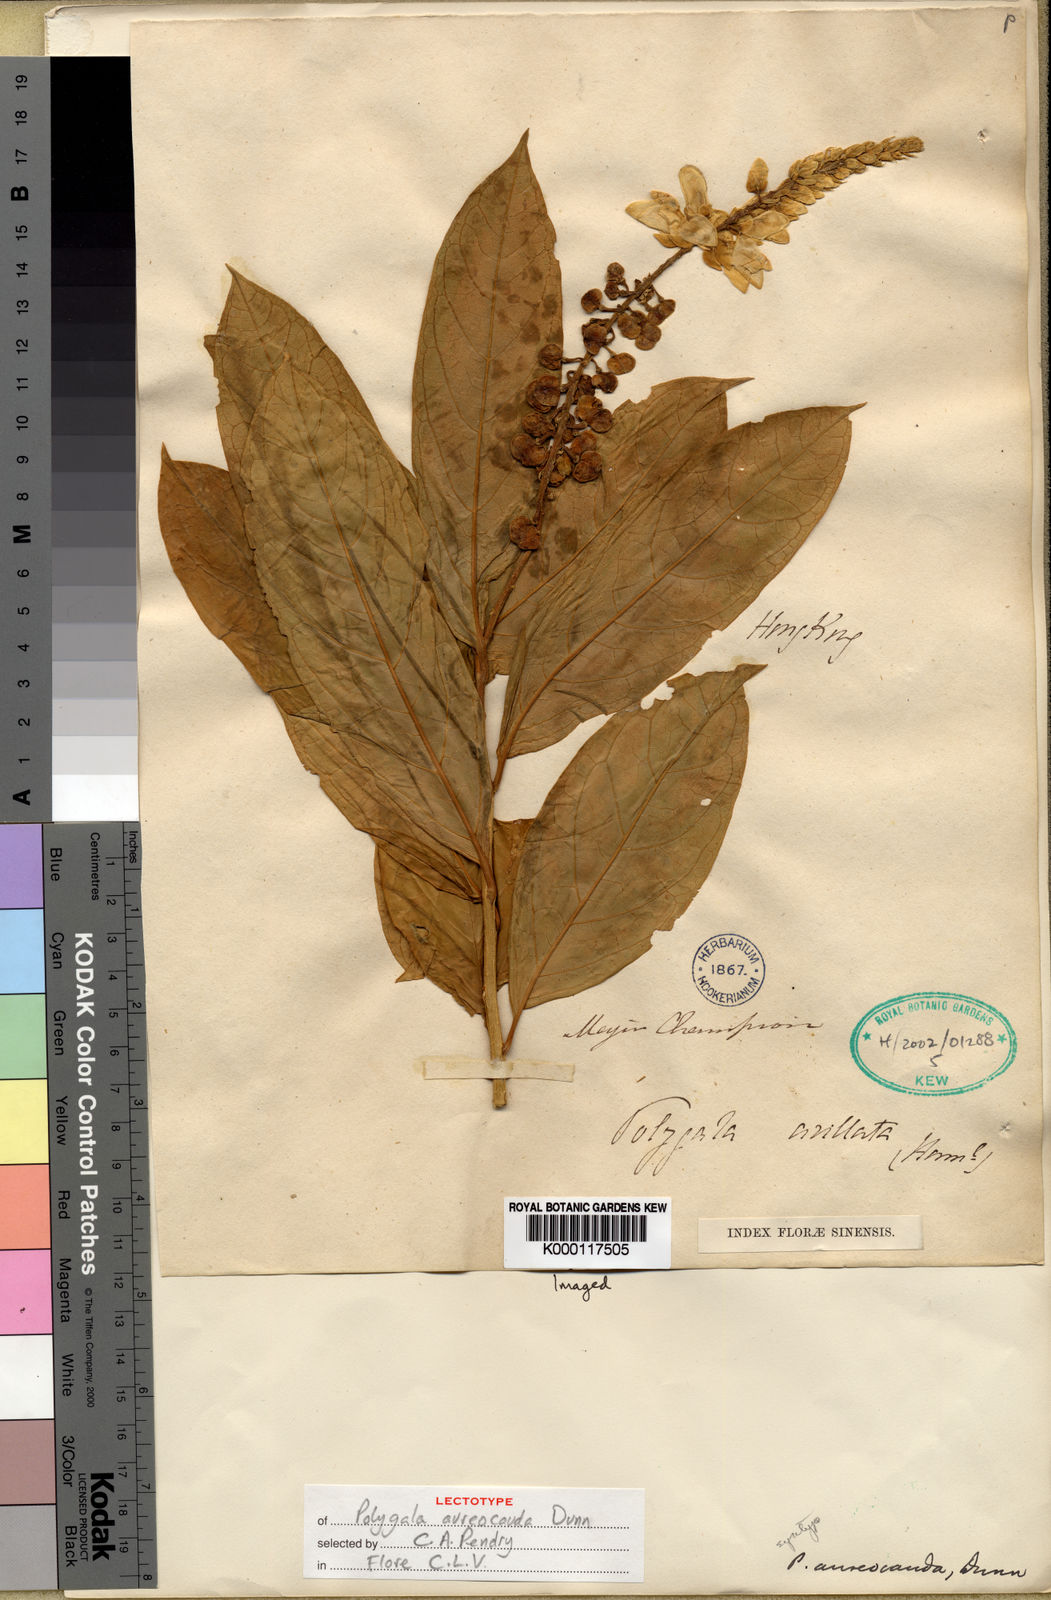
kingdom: Plantae
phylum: Tracheophyta
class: Magnoliopsida
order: Fabales
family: Polygalaceae
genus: Polygala
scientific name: Polygala forbesii
